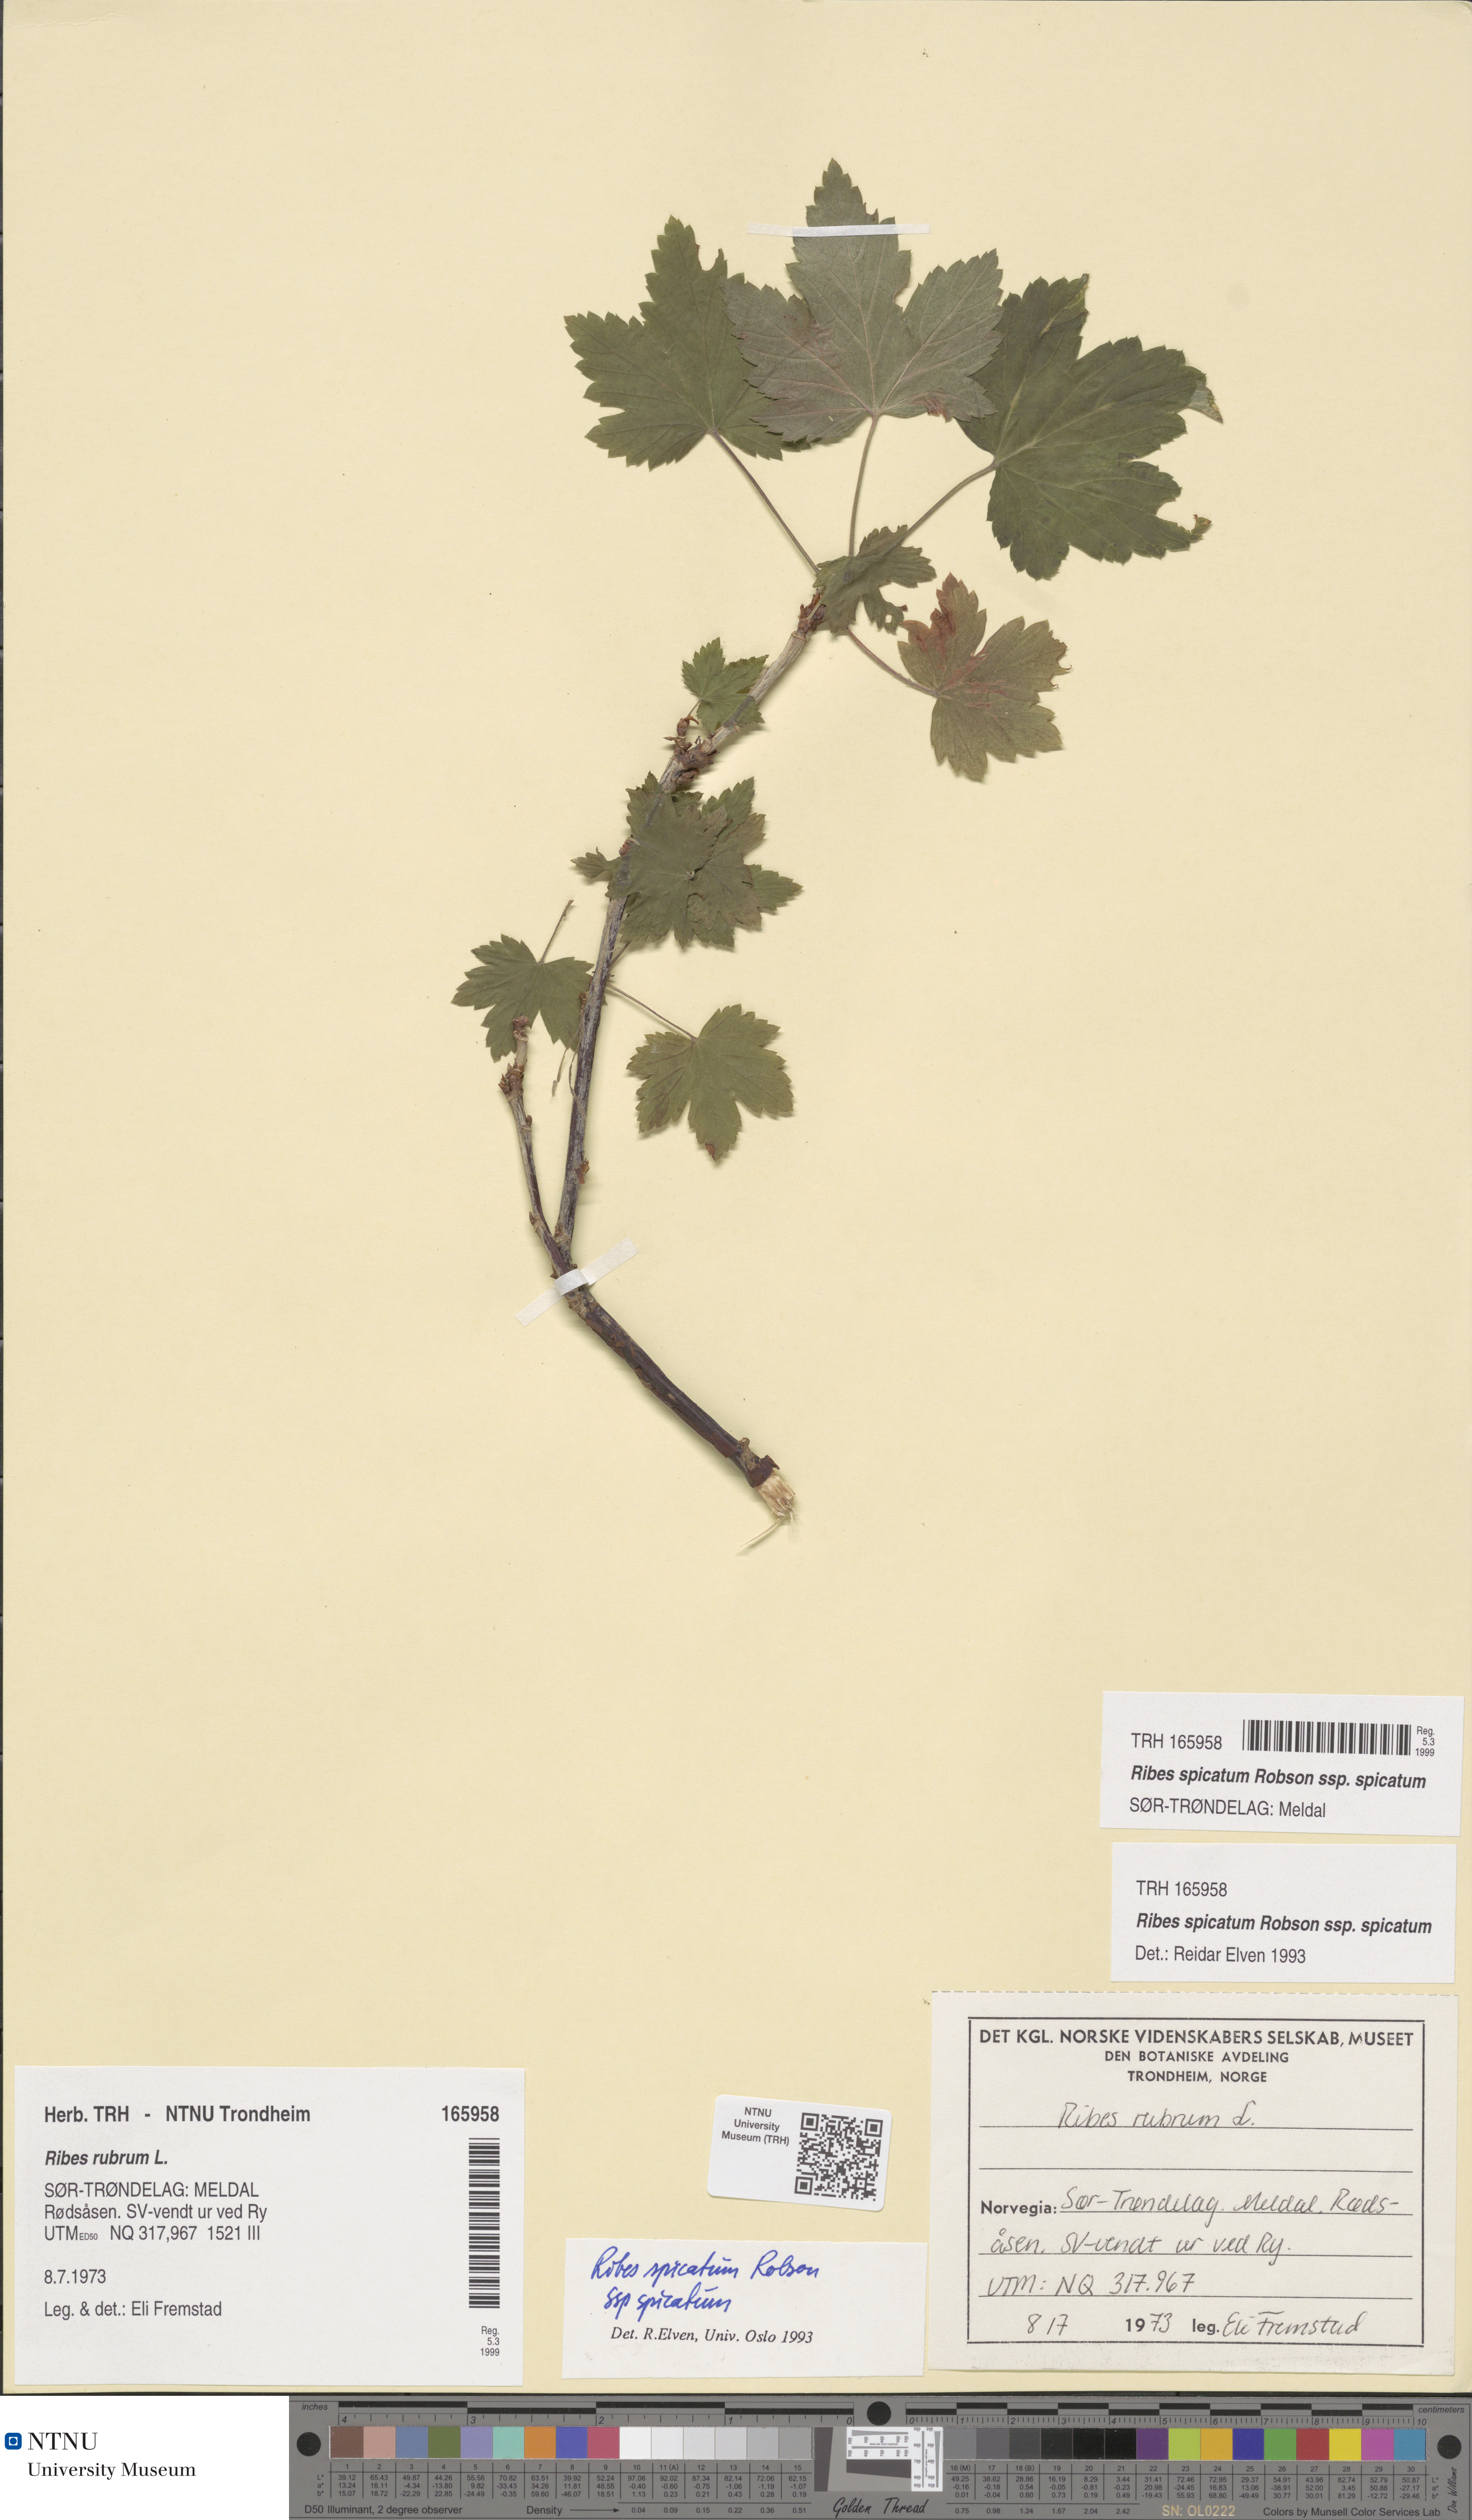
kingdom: Plantae
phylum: Tracheophyta
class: Magnoliopsida
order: Saxifragales
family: Grossulariaceae
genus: Ribes
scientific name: Ribes spicatum
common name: Downy currant
